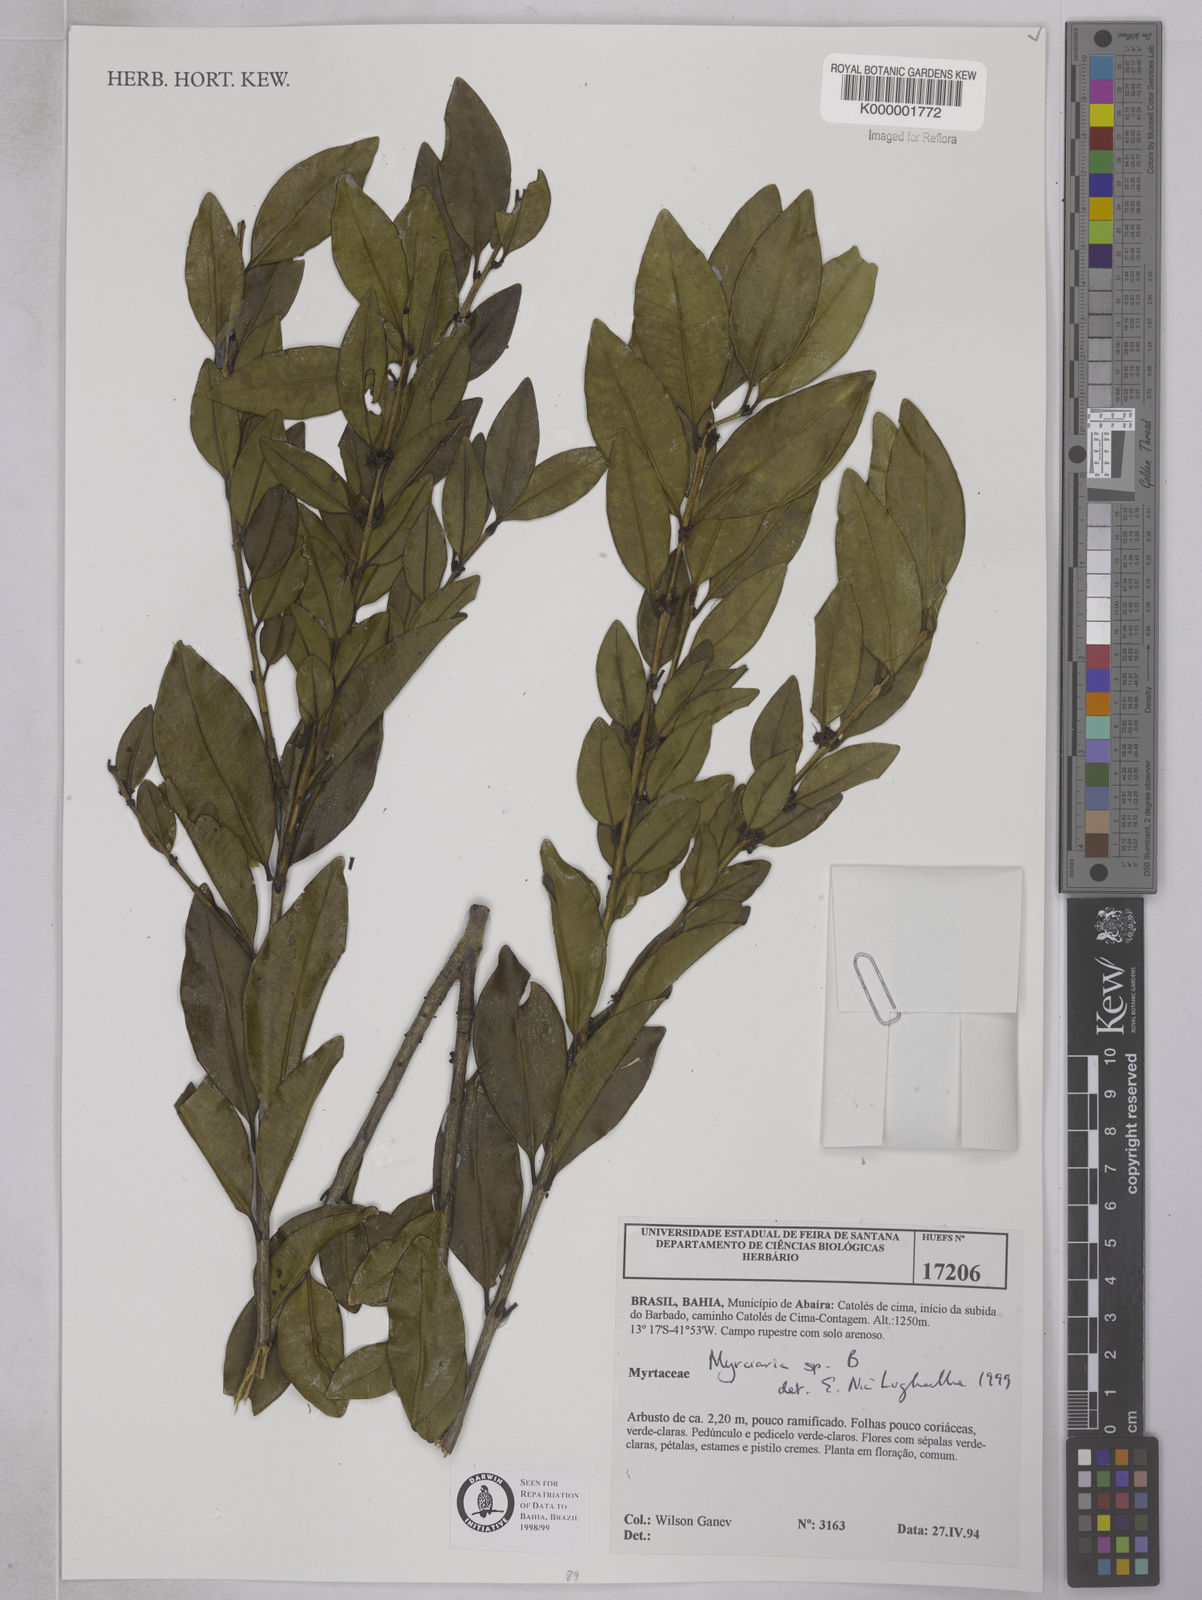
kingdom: Plantae
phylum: Tracheophyta
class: Magnoliopsida
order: Myrtales
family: Myrtaceae
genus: Myrciaria
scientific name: Myrciaria
